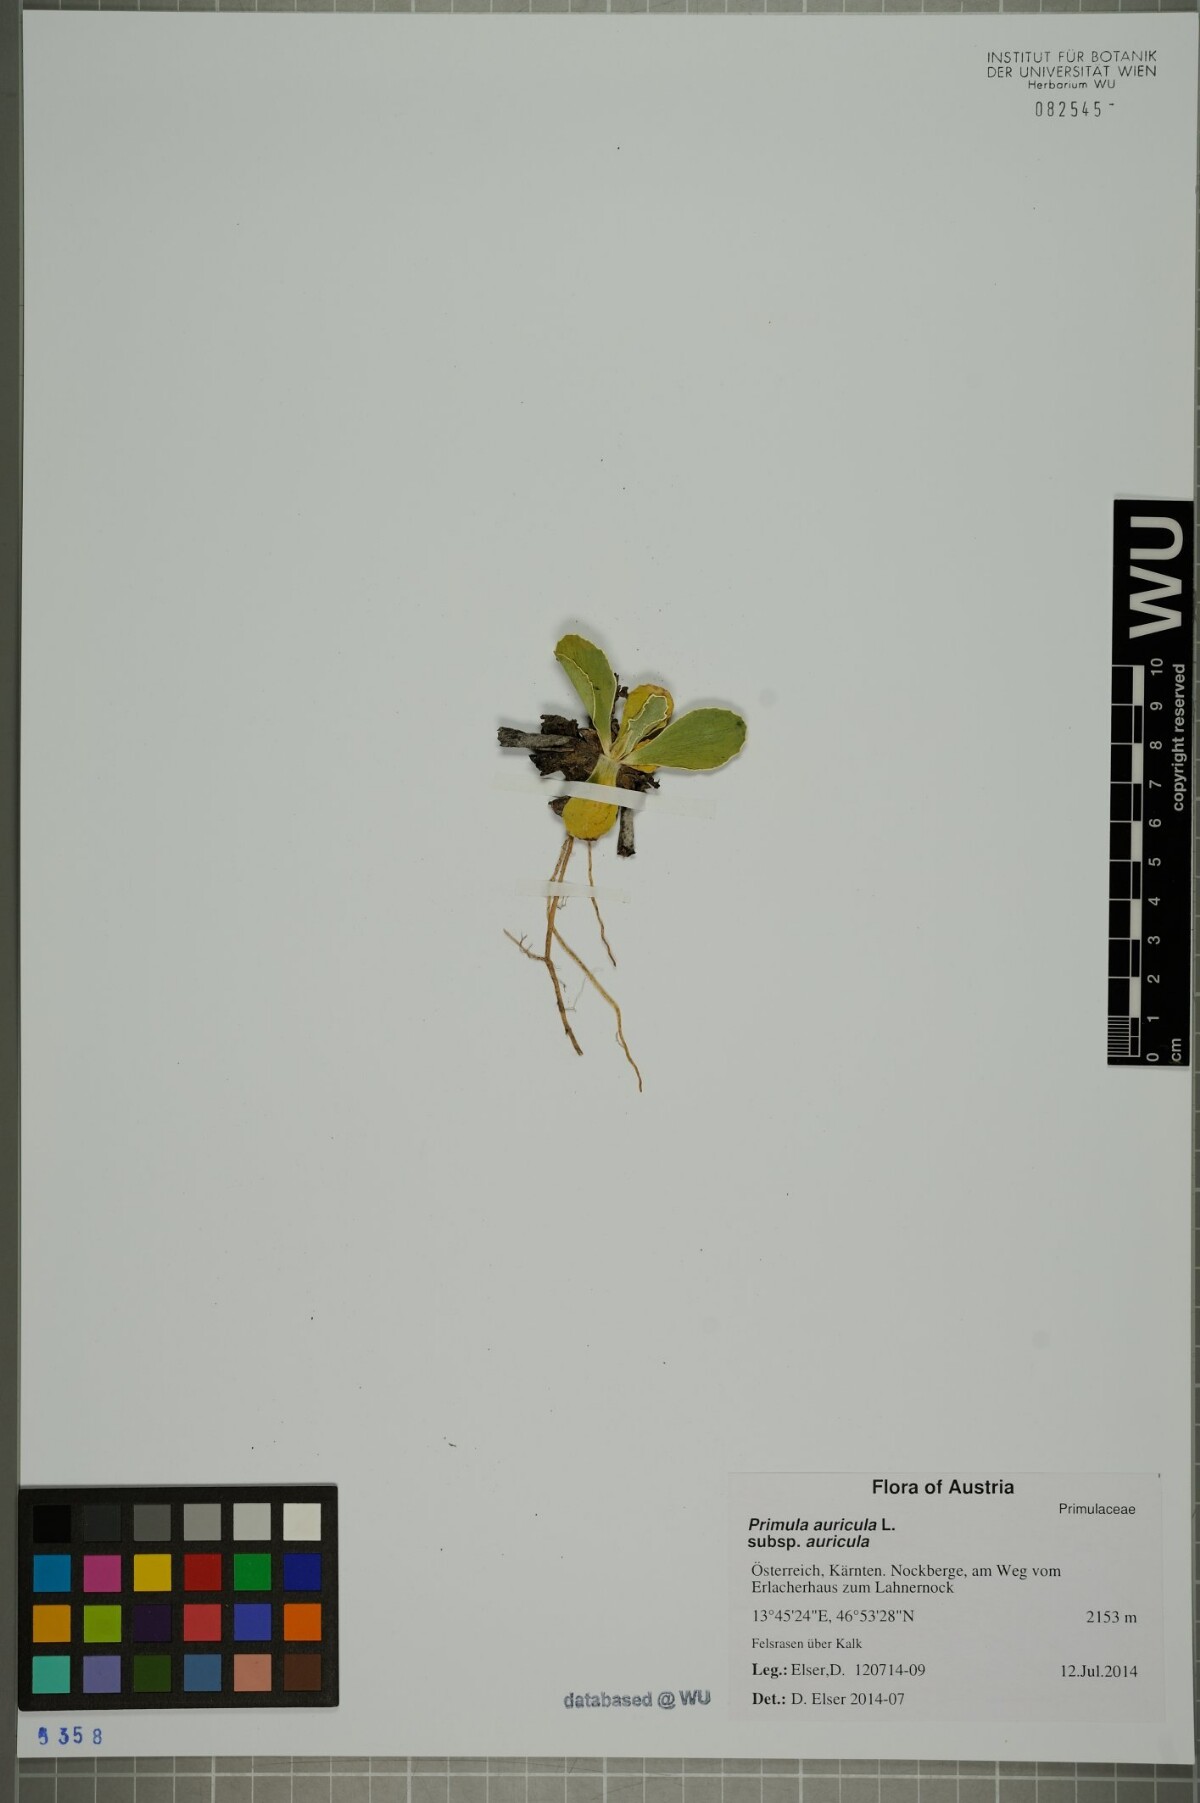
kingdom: Plantae
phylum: Tracheophyta
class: Magnoliopsida
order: Ericales
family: Primulaceae
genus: Primula
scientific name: Primula auricula
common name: Auricula
